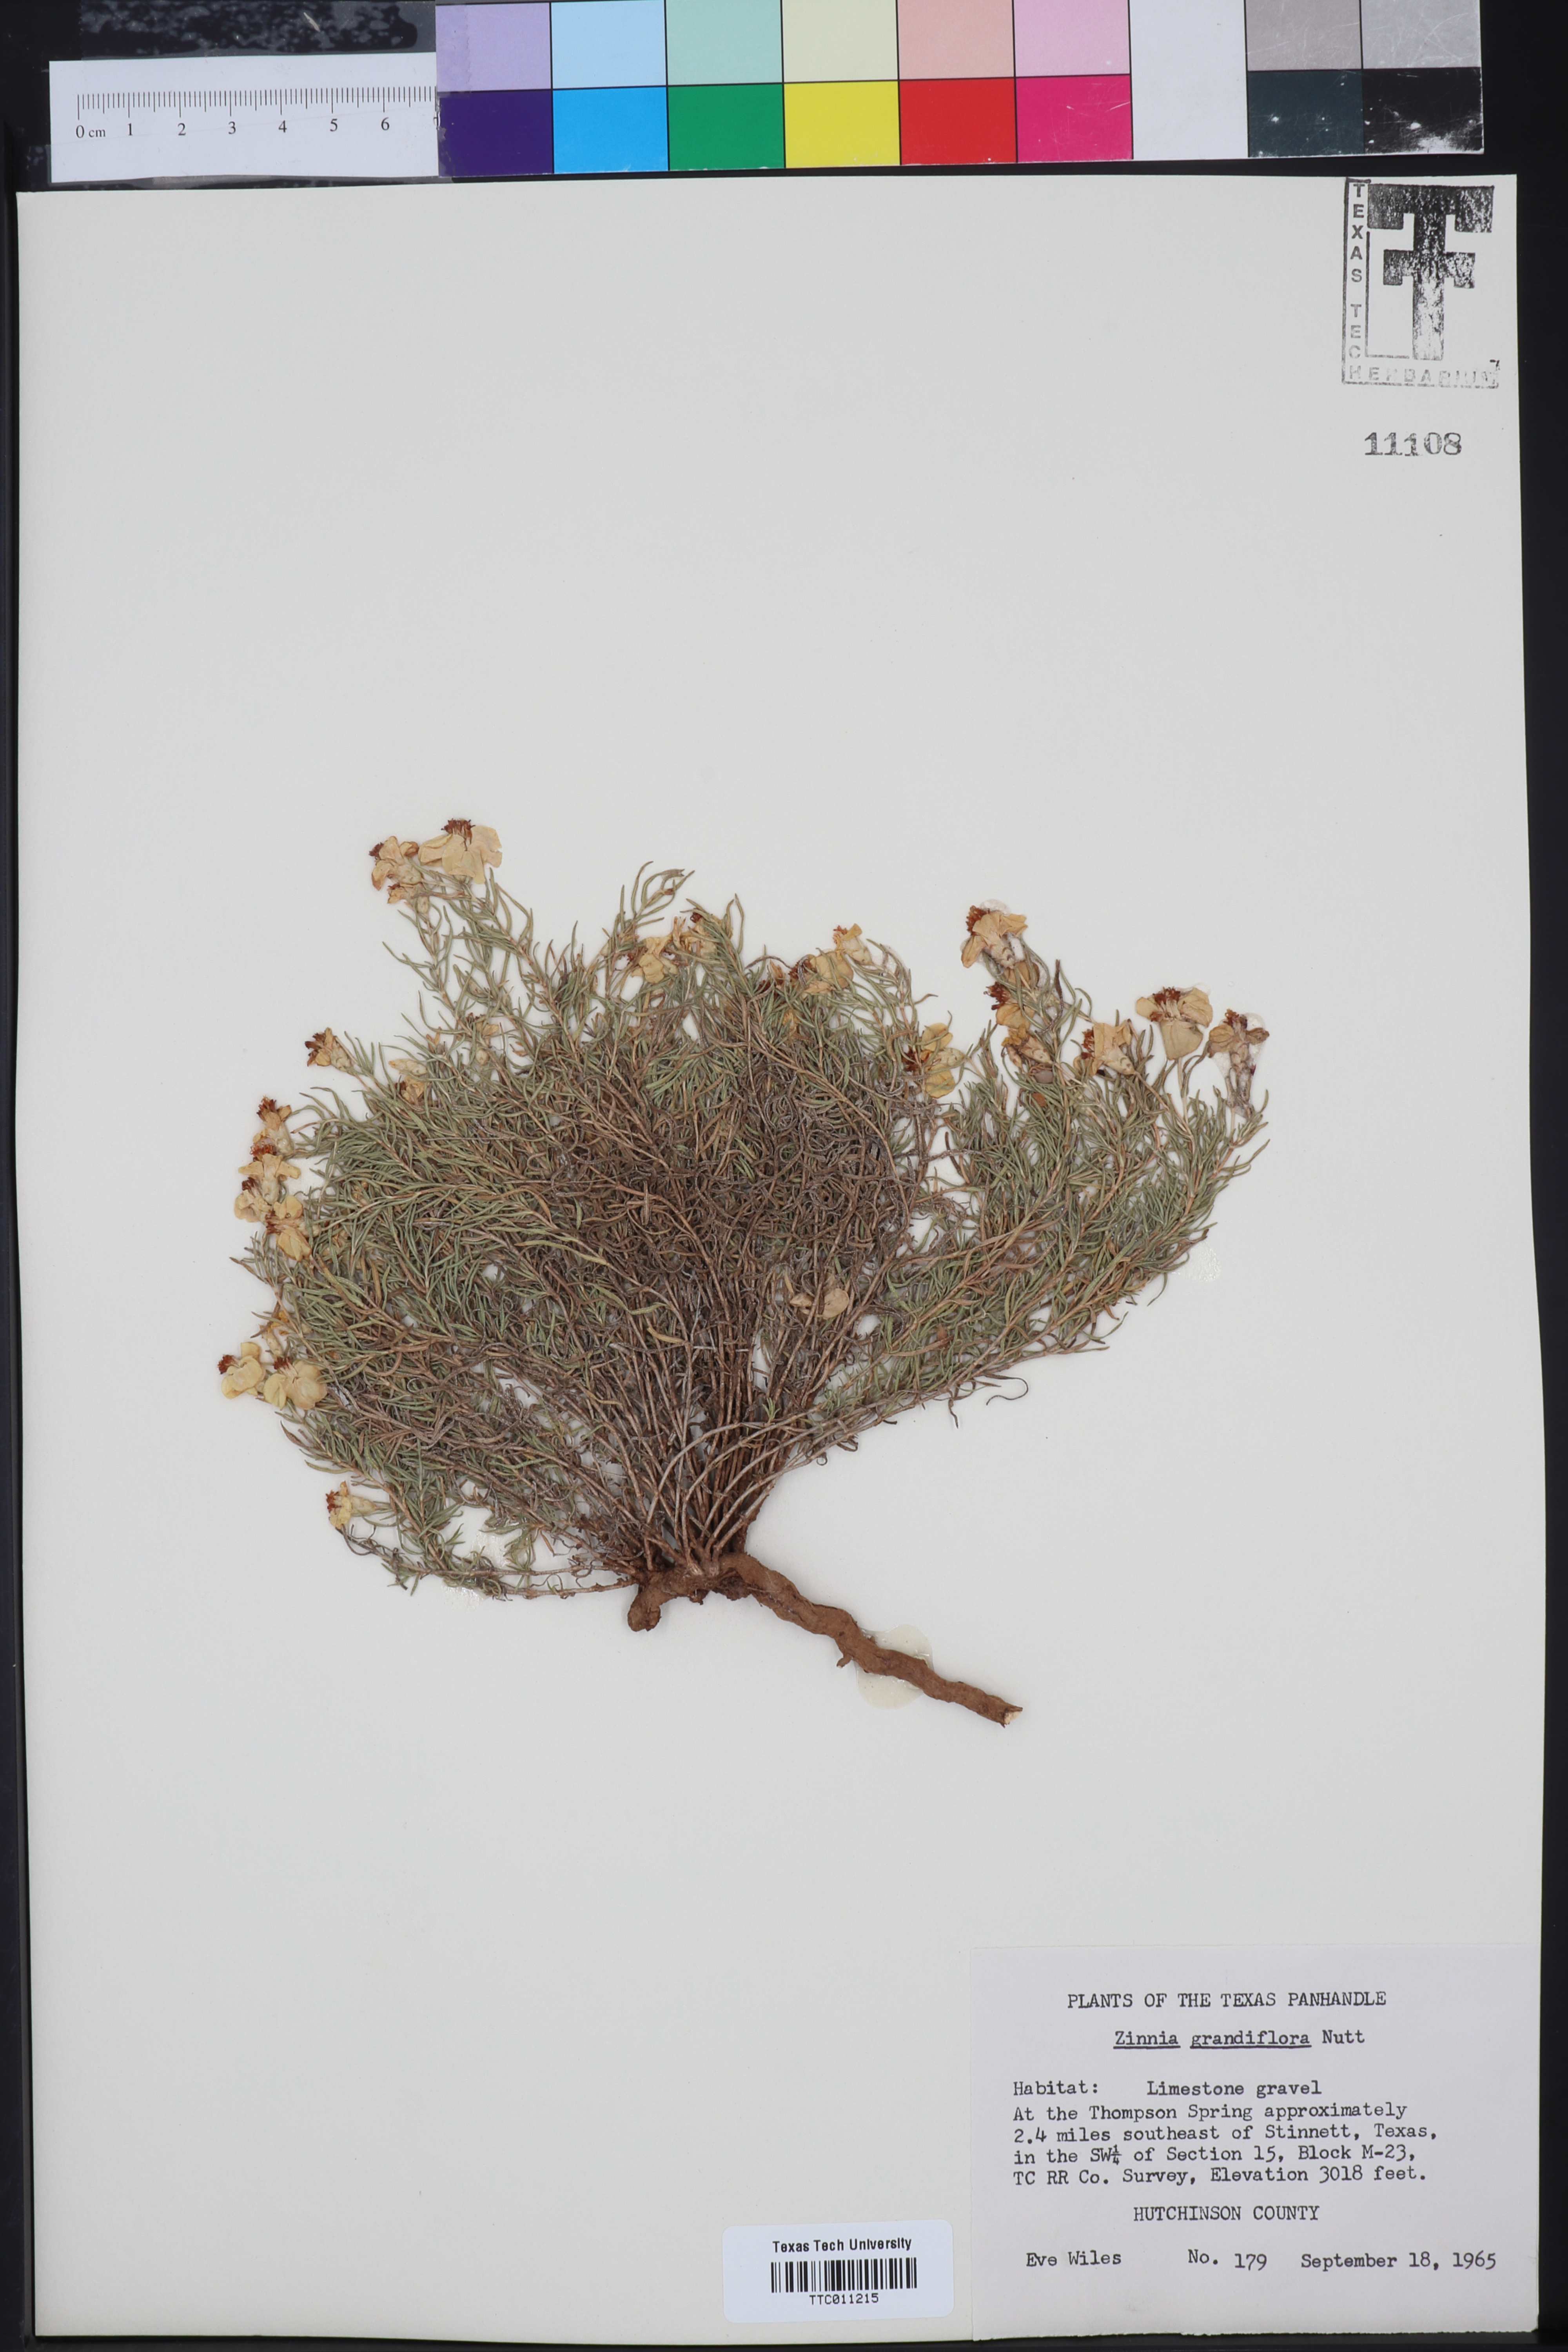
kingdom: Plantae
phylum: Tracheophyta
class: Magnoliopsida
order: Asterales
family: Asteraceae
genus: Zinnia
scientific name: Zinnia grandiflora
